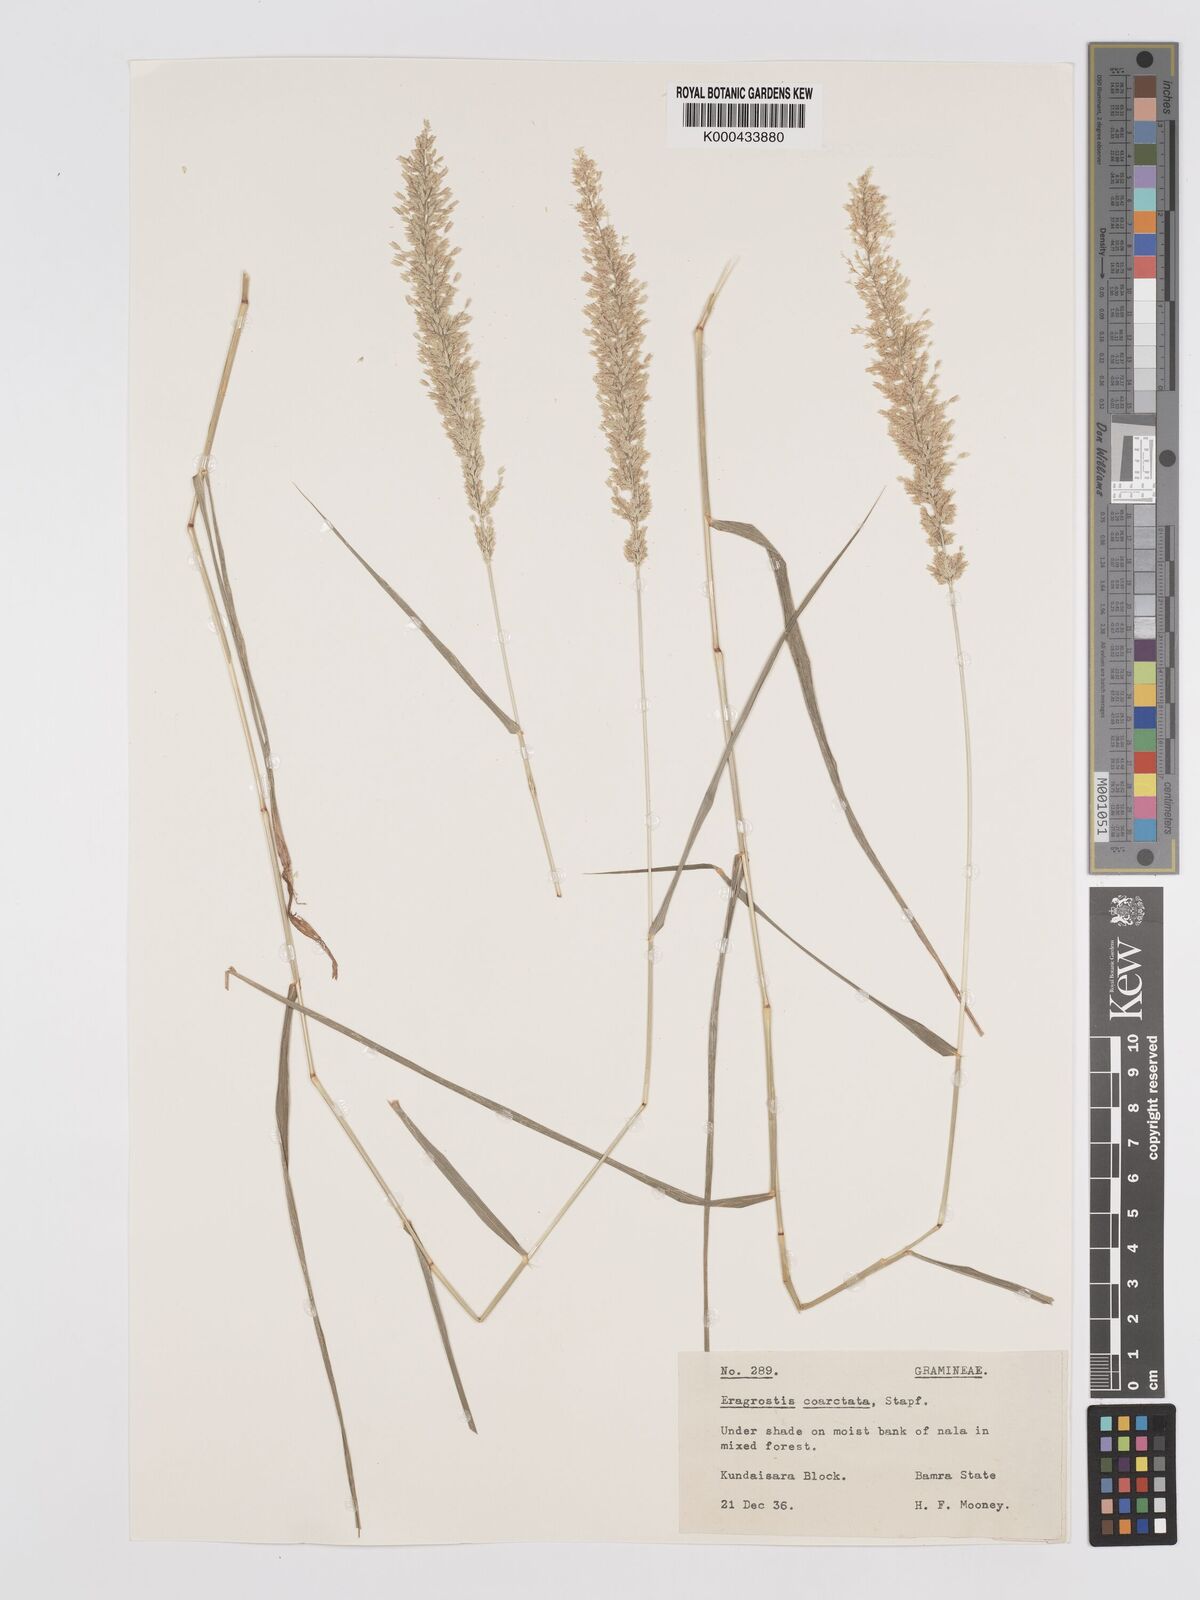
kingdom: Plantae
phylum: Tracheophyta
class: Liliopsida
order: Poales
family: Poaceae
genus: Eragrostis
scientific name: Eragrostis coarctata
